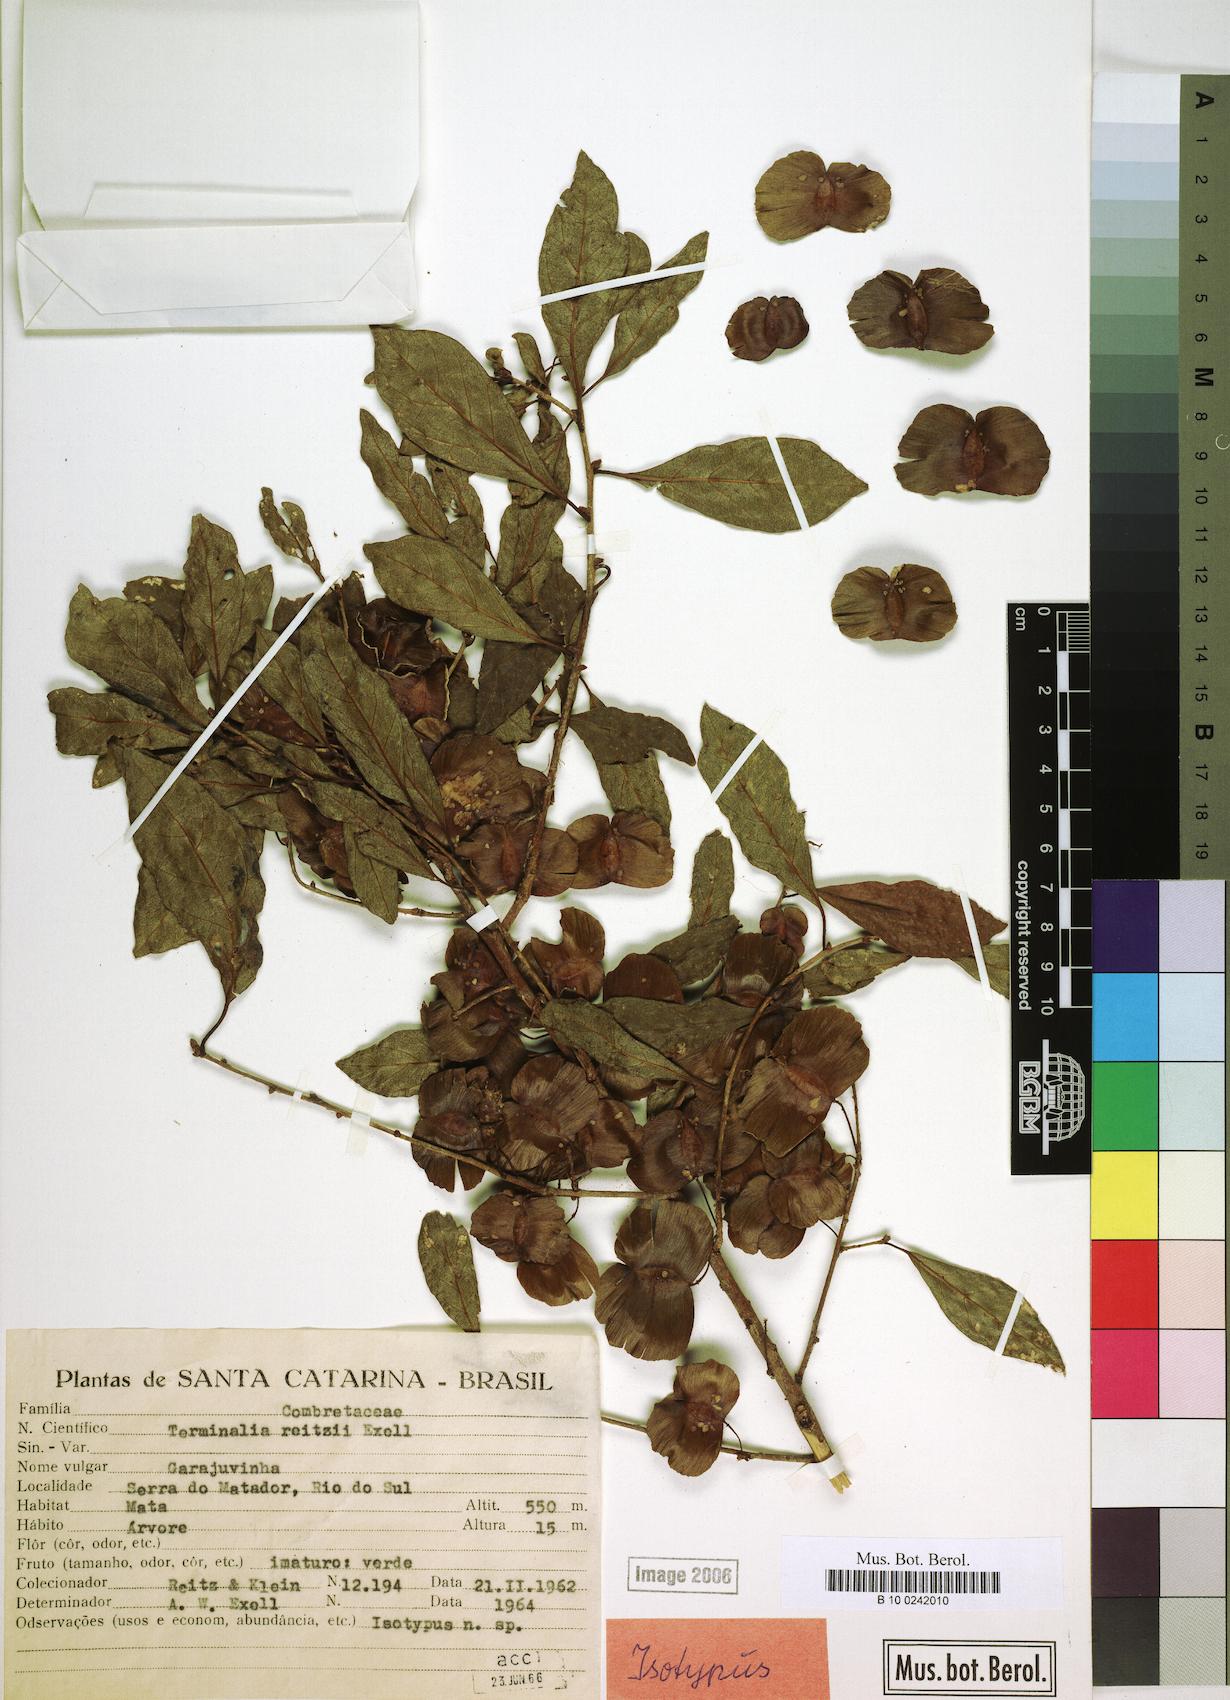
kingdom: Plantae
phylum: Tracheophyta
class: Magnoliopsida
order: Myrtales
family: Combretaceae
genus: Terminalia
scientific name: Terminalia reitzii
